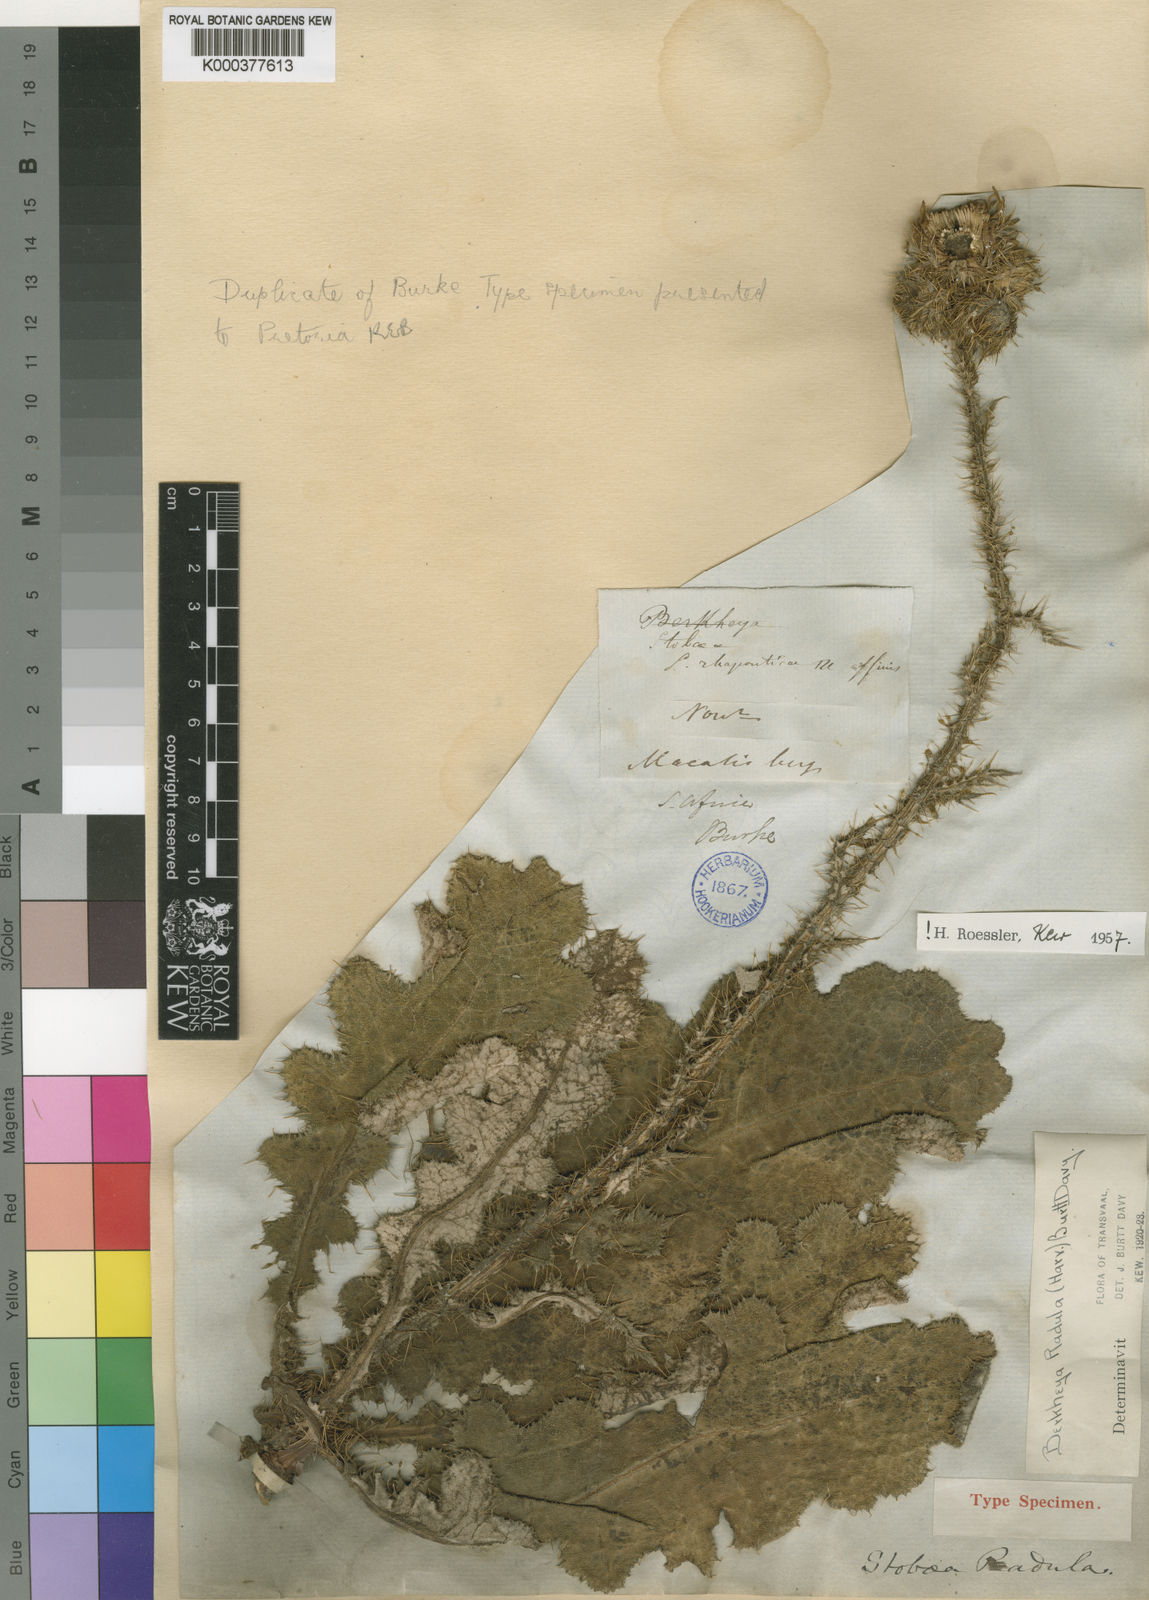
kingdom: Plantae
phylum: Tracheophyta
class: Magnoliopsida
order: Asterales
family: Asteraceae
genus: Berkheya
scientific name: Berkheya radula
